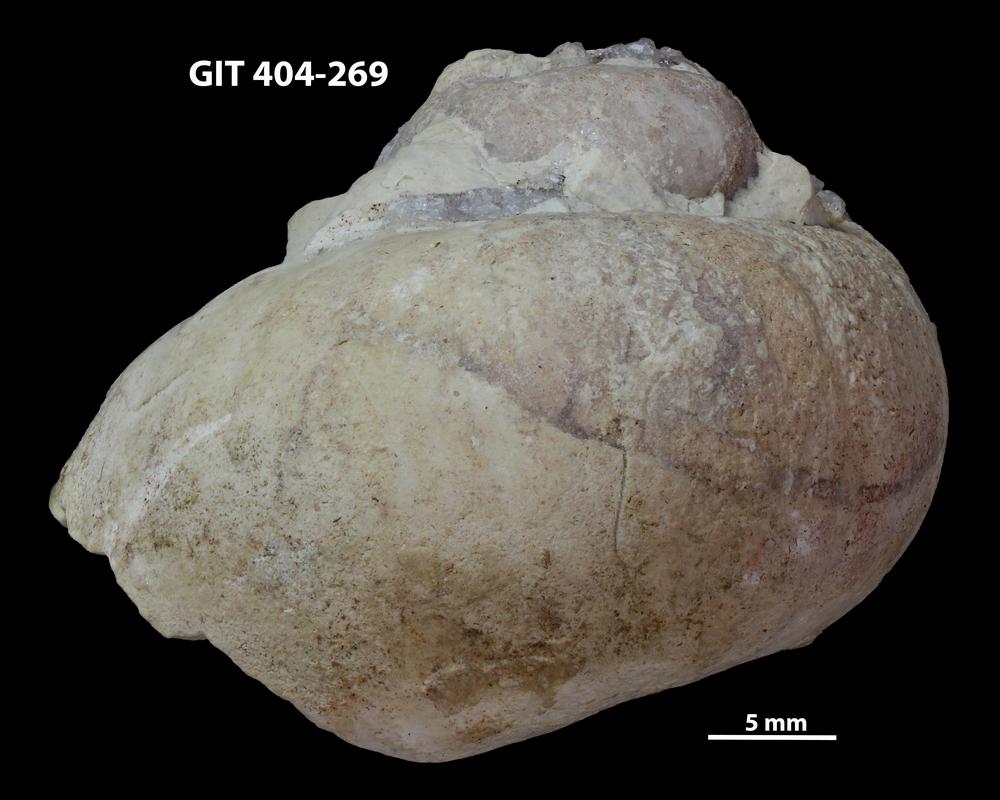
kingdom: Animalia
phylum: Mollusca
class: Gastropoda
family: Holopeidae
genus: Holopea
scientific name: Holopea ampullacea
